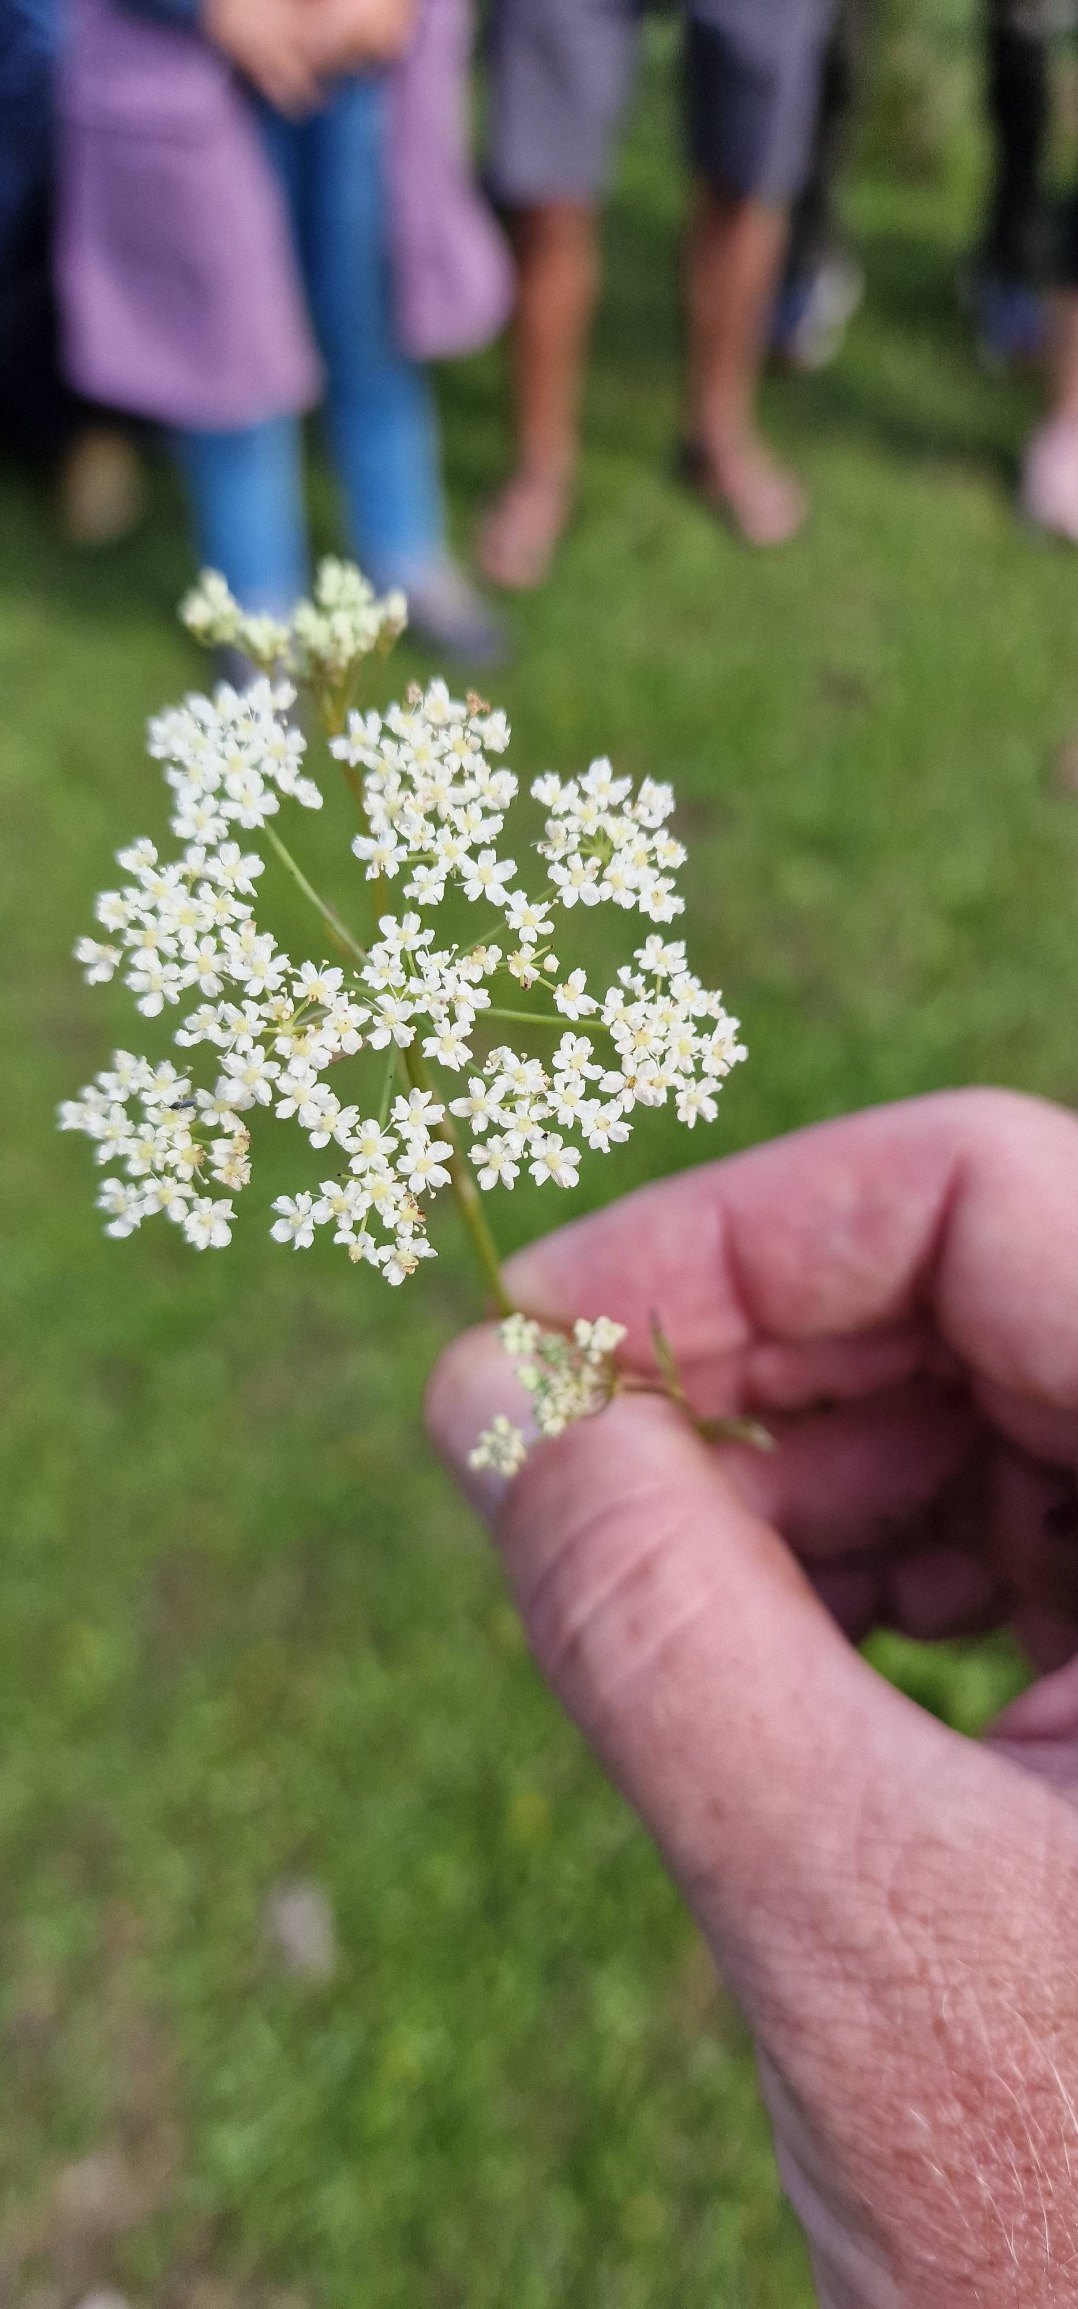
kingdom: Plantae
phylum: Tracheophyta
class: Magnoliopsida
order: Apiales
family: Apiaceae
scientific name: Apiaceae
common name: Skærmplantefamilien
